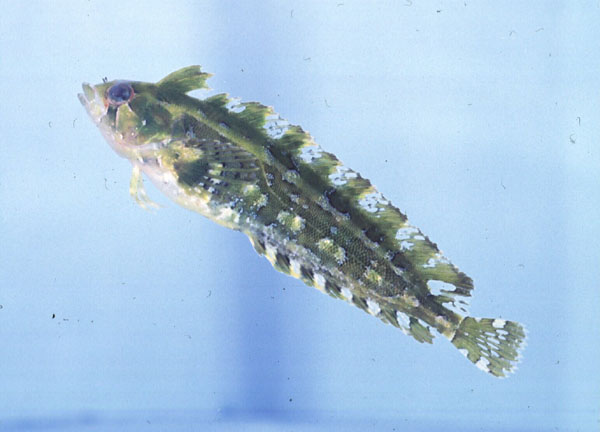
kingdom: Animalia
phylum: Chordata
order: Perciformes
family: Clinidae
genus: Pavoclinus
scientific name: Pavoclinus laurentii
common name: Rippled klipfish
